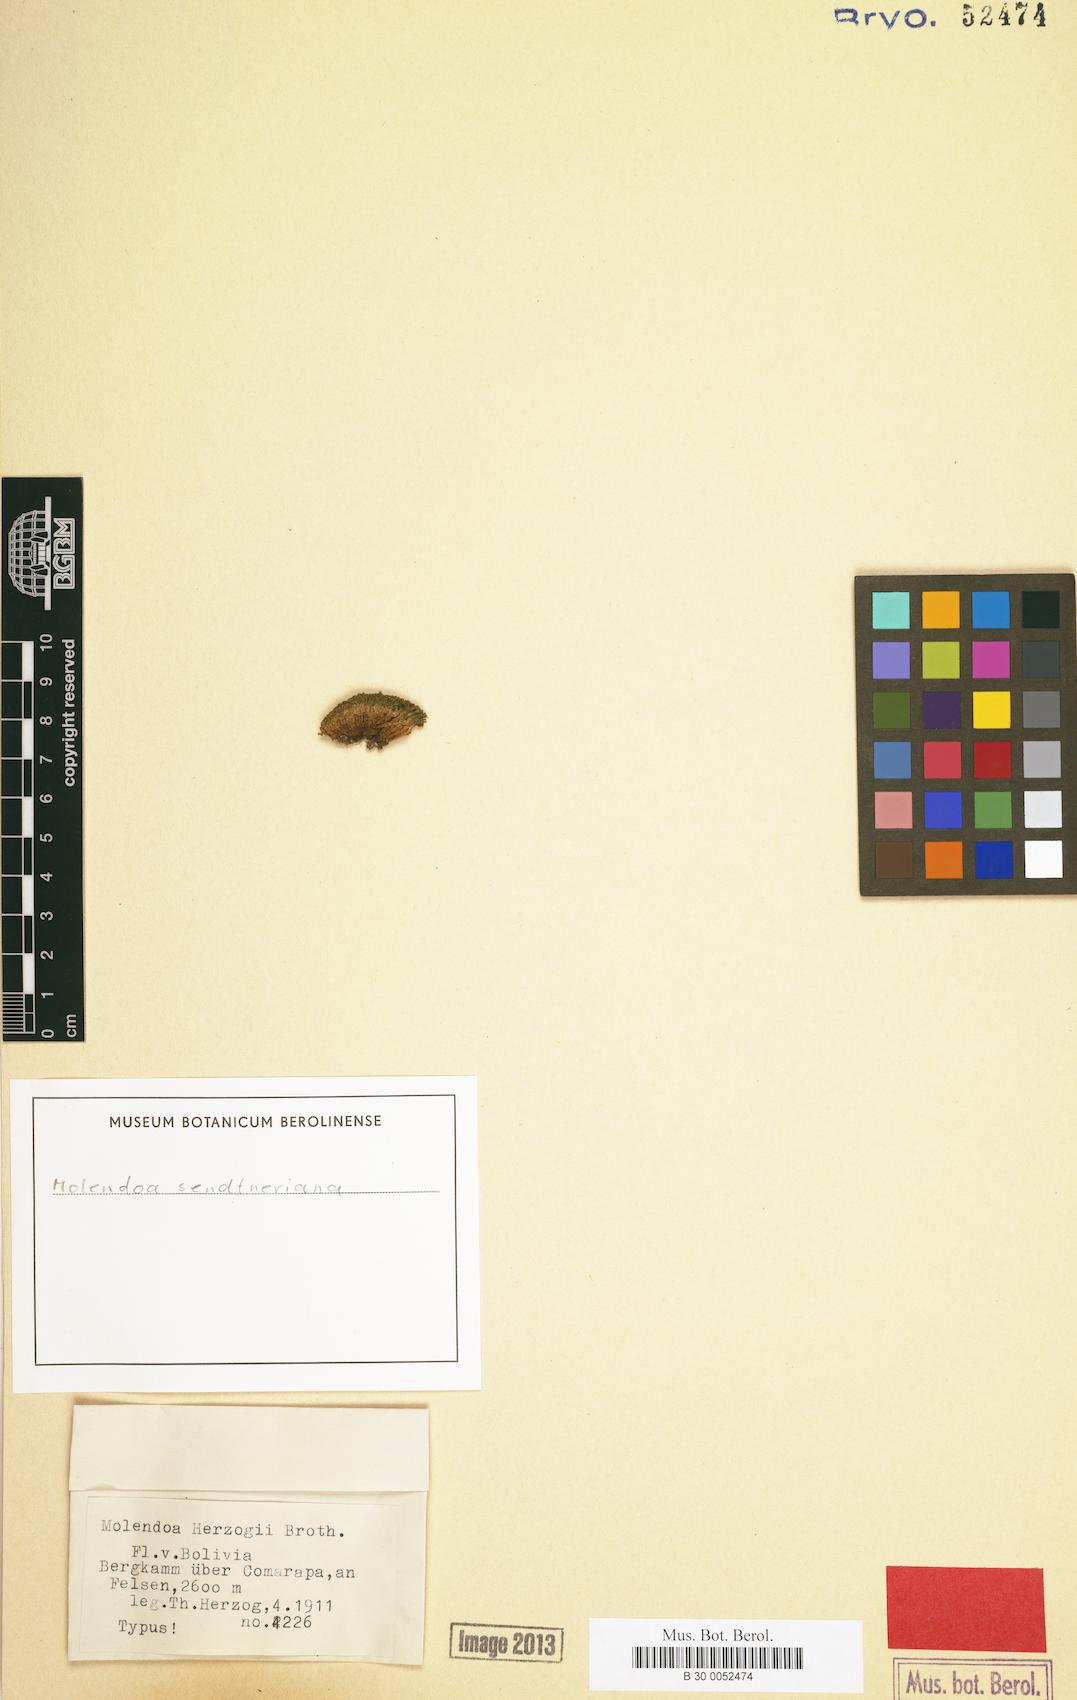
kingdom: Plantae
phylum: Bryophyta
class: Bryopsida
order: Pottiales
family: Pottiaceae
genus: Molendoa
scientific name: Molendoa sendtneriana
